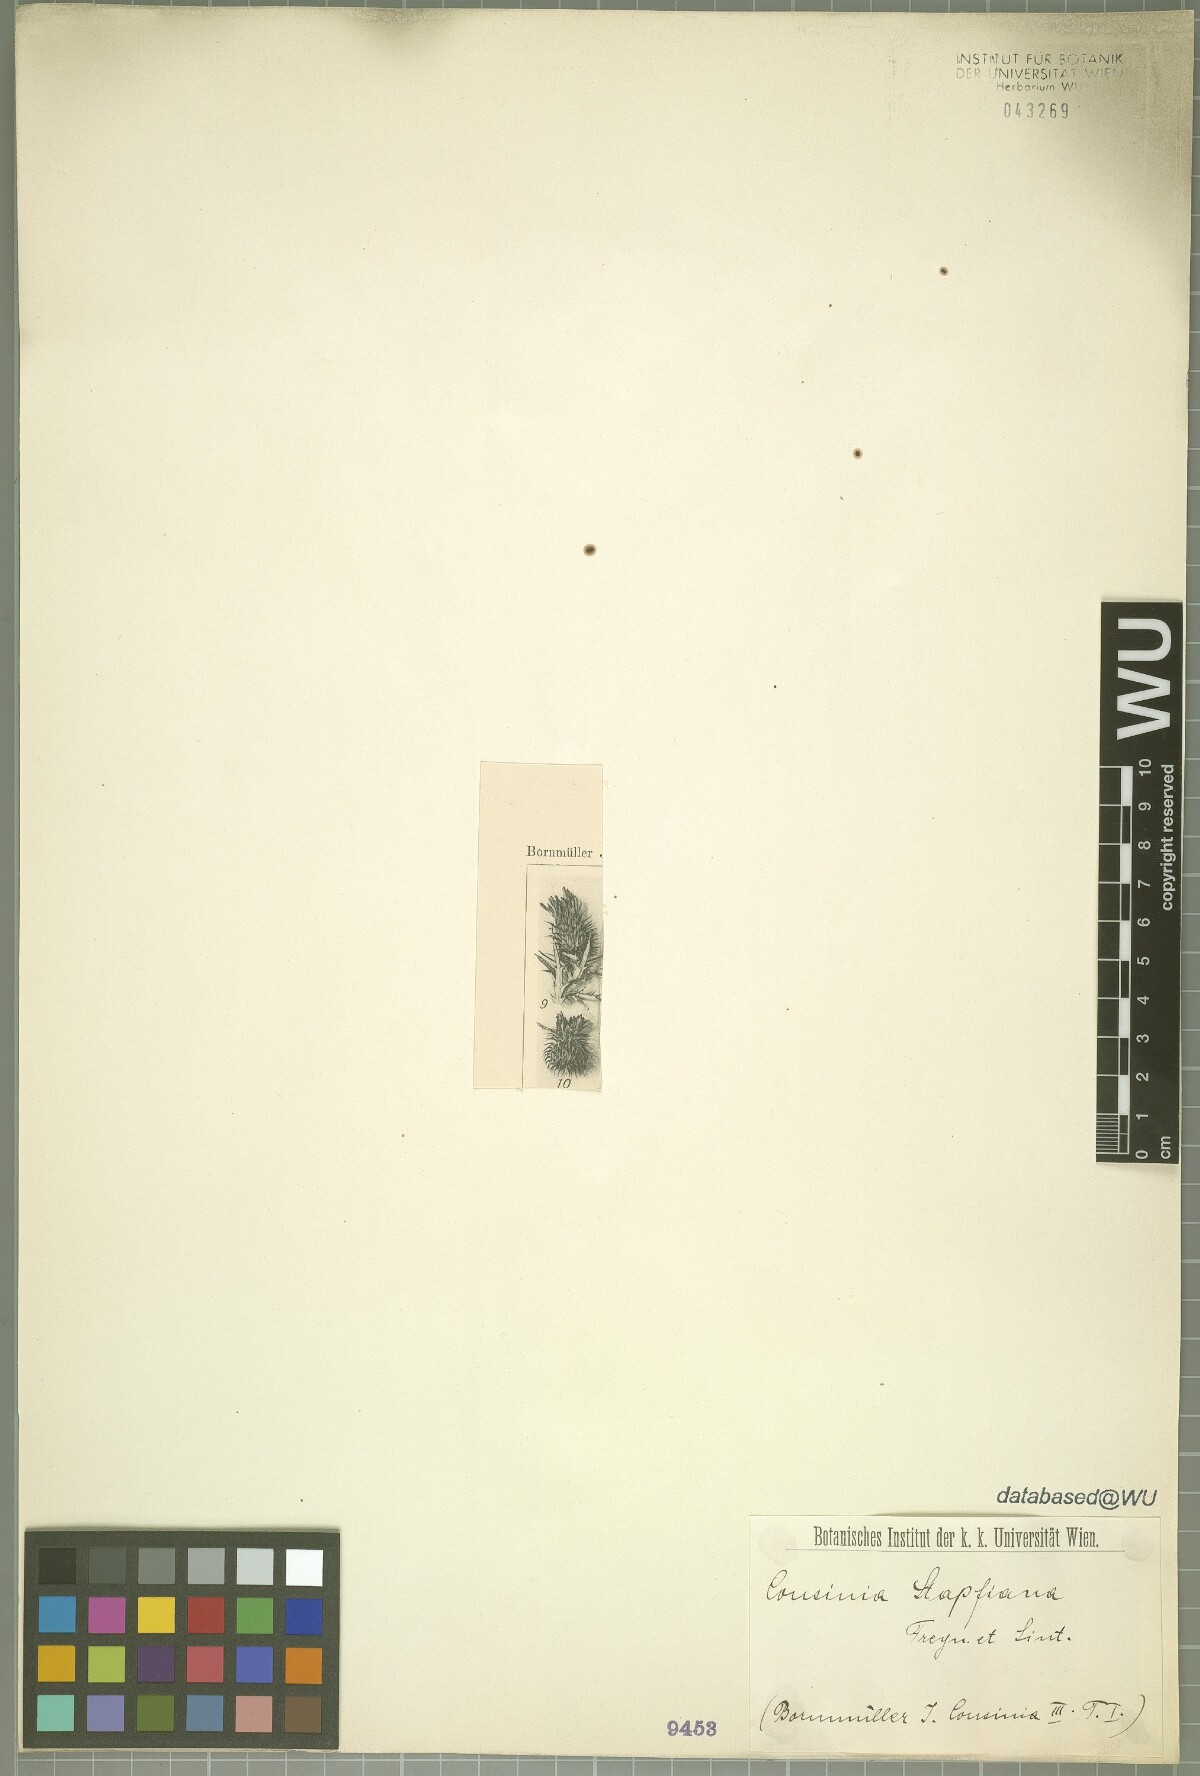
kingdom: Plantae
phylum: Tracheophyta
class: Magnoliopsida
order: Asterales
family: Asteraceae
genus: Cousinia
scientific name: Cousinia stapfiana
